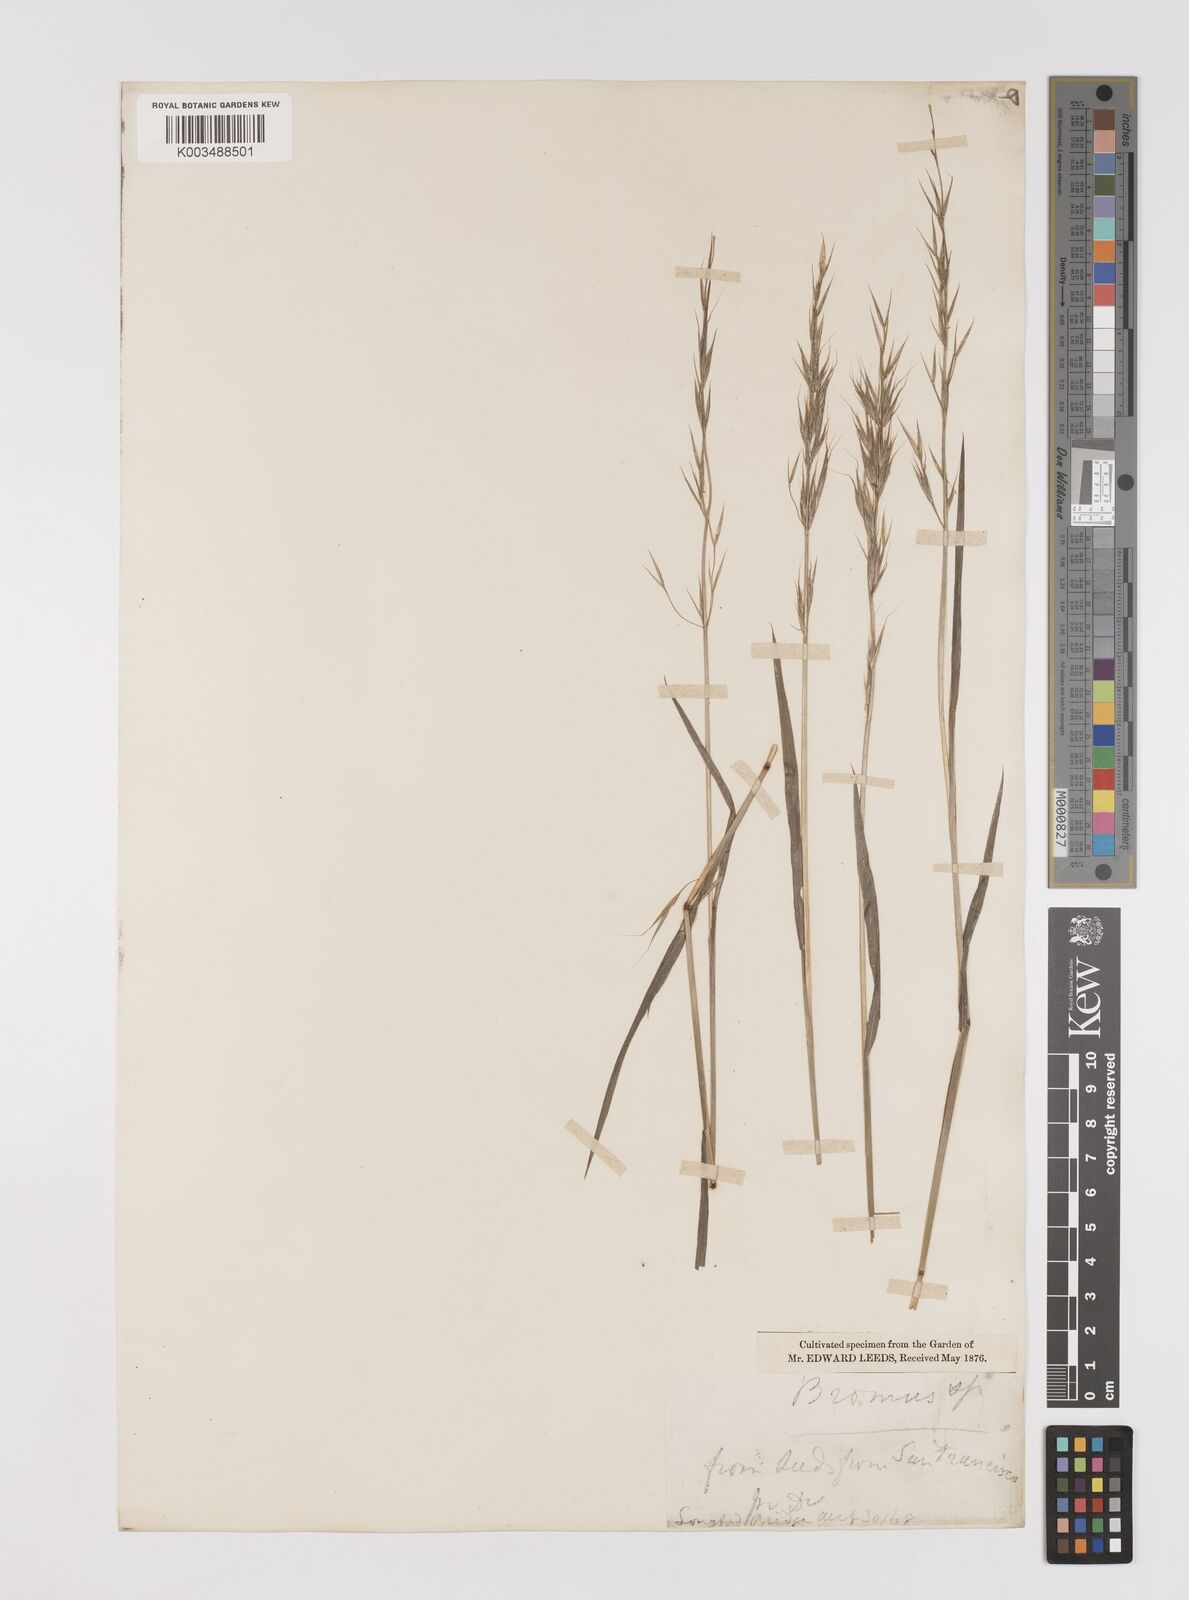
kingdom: Plantae
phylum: Tracheophyta
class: Liliopsida
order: Poales
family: Poaceae
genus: Bromus
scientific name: Bromus berteroanus
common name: Chilean chess
